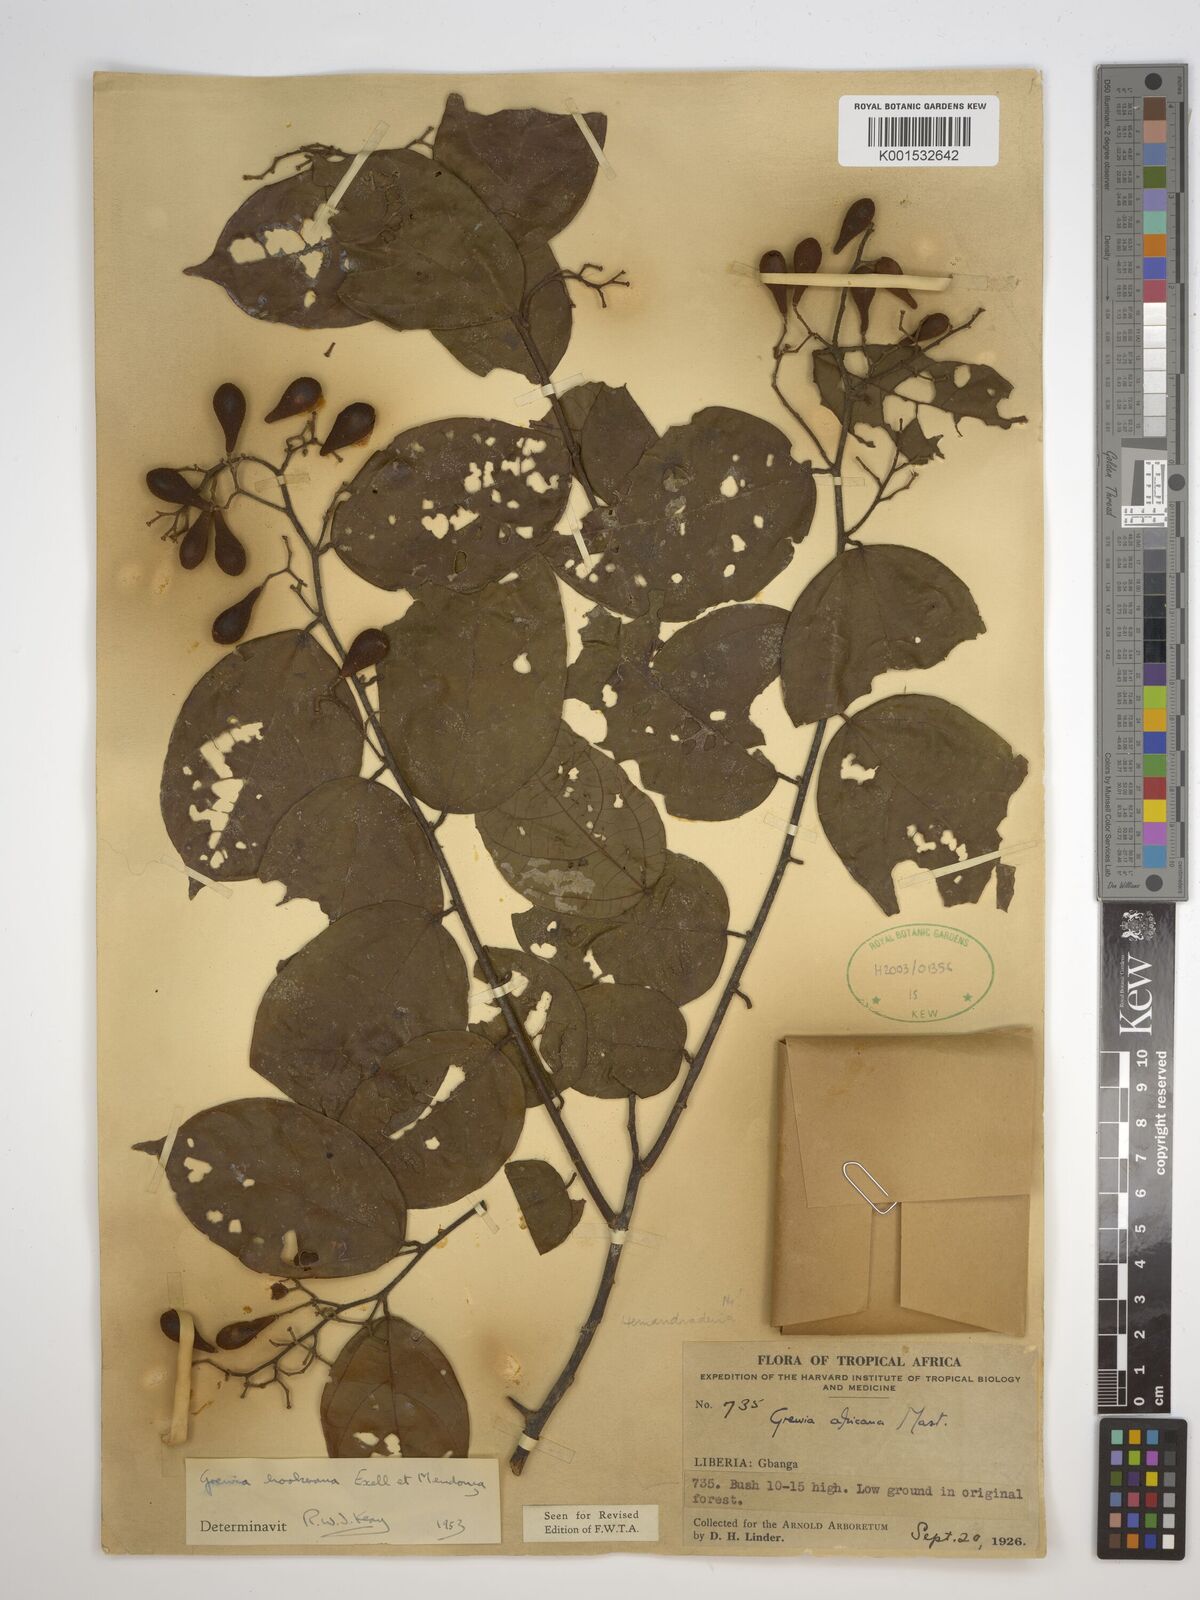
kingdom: Plantae
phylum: Tracheophyta
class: Magnoliopsida
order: Malvales
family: Malvaceae
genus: Microcos
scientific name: Microcos africana
